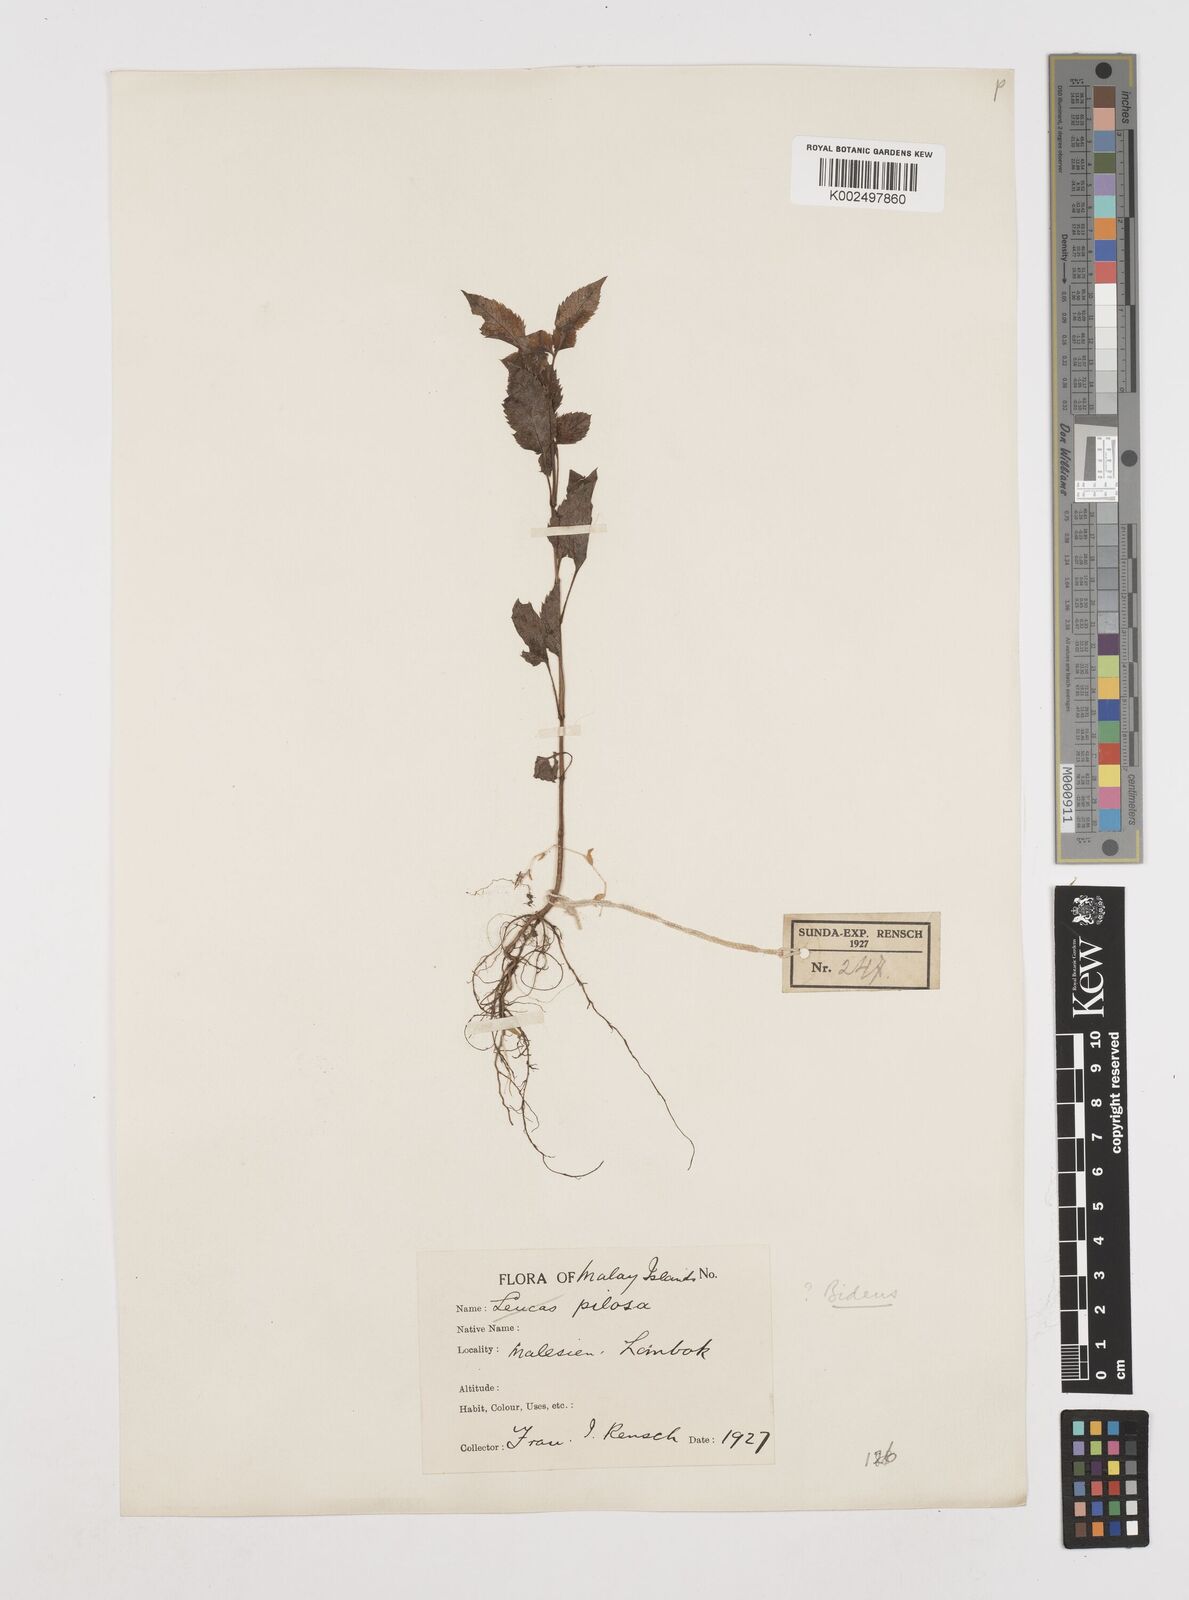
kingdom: Plantae
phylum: Tracheophyta
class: Magnoliopsida
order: Asterales
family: Asteraceae
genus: Bidens
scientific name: Bidens biternata
